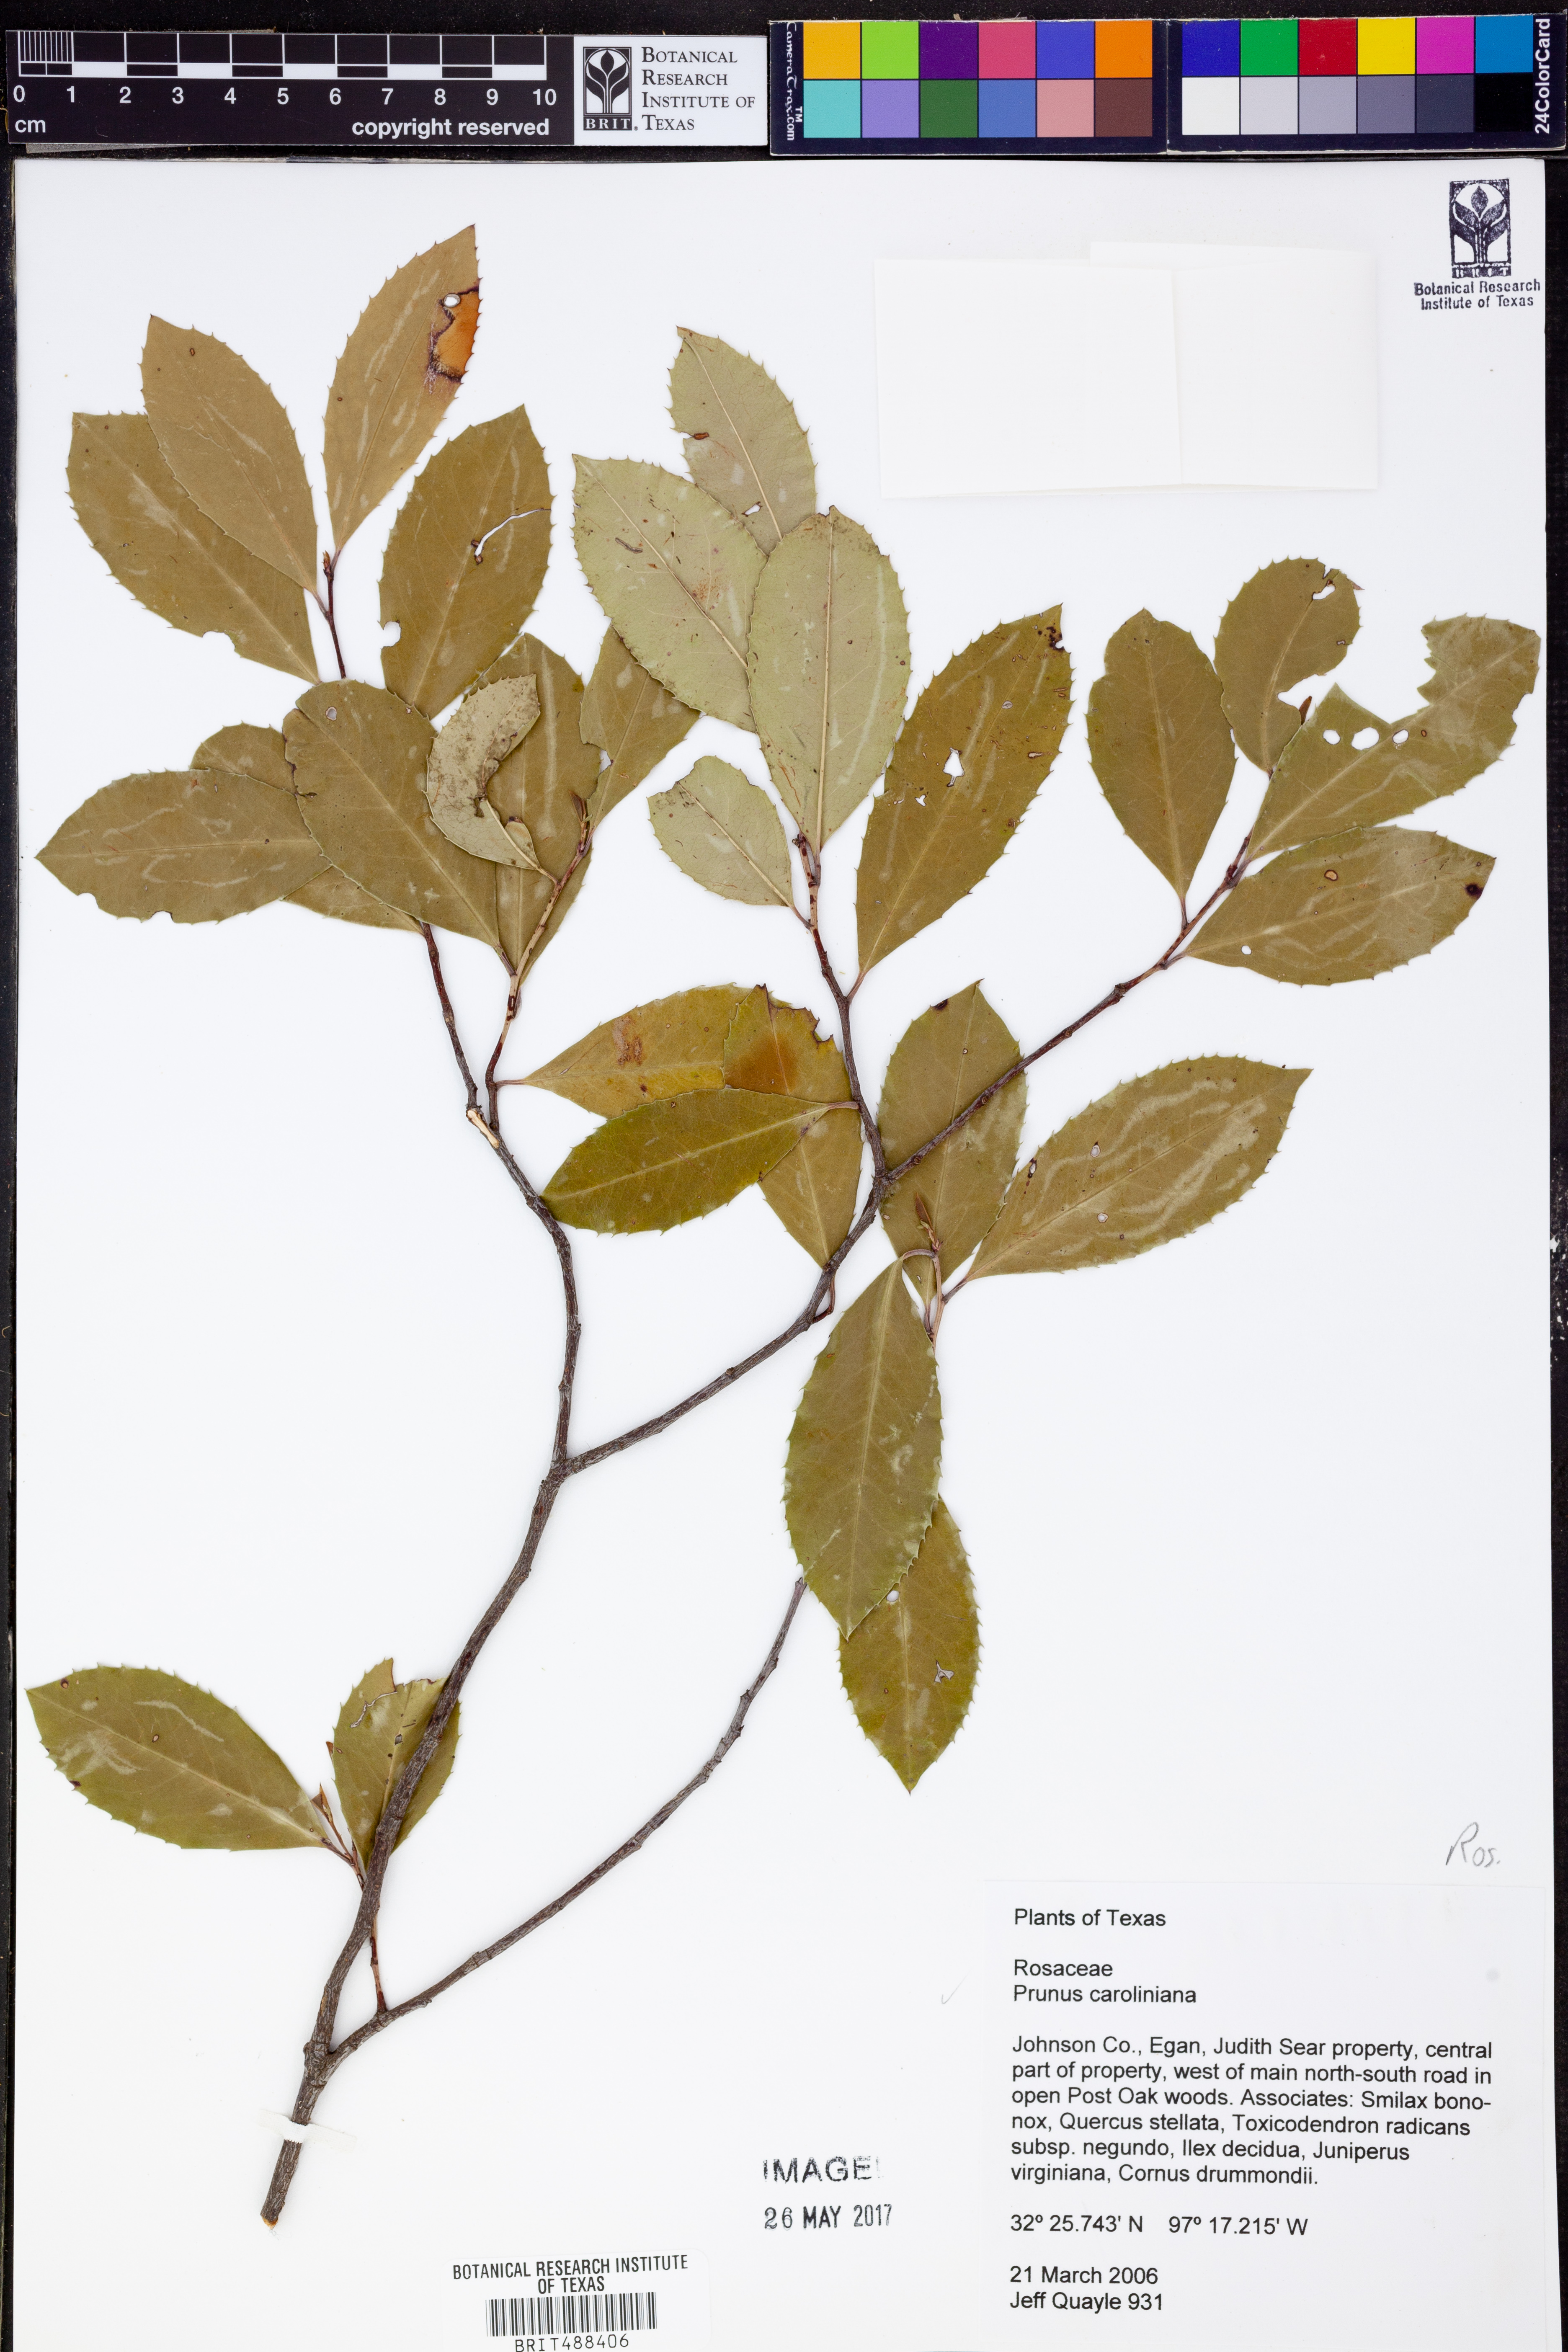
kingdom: Plantae
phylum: Tracheophyta
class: Magnoliopsida
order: Rosales
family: Rosaceae
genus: Prunus
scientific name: Prunus caroliniana
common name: Carolina laurel cherry
